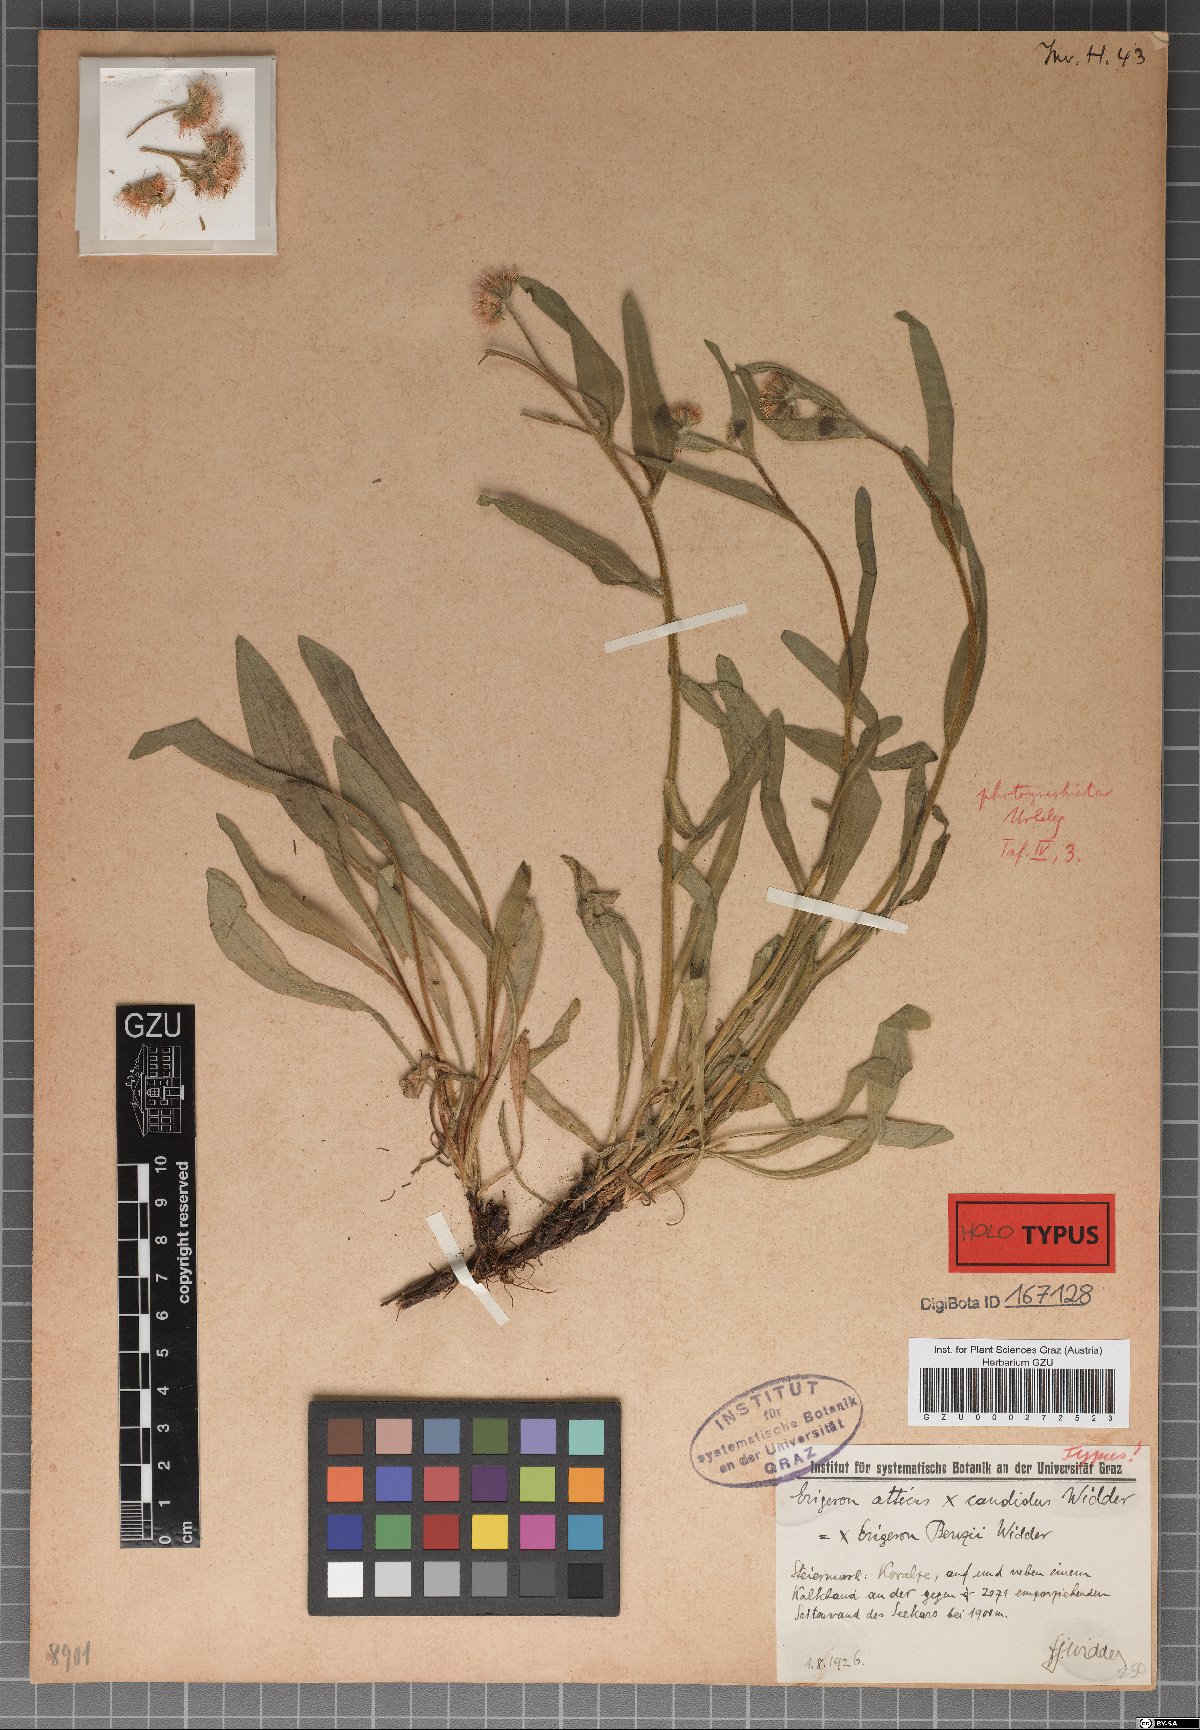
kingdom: Plantae
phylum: Tracheophyta
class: Magnoliopsida
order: Asterales
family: Asteraceae
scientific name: Asteraceae
